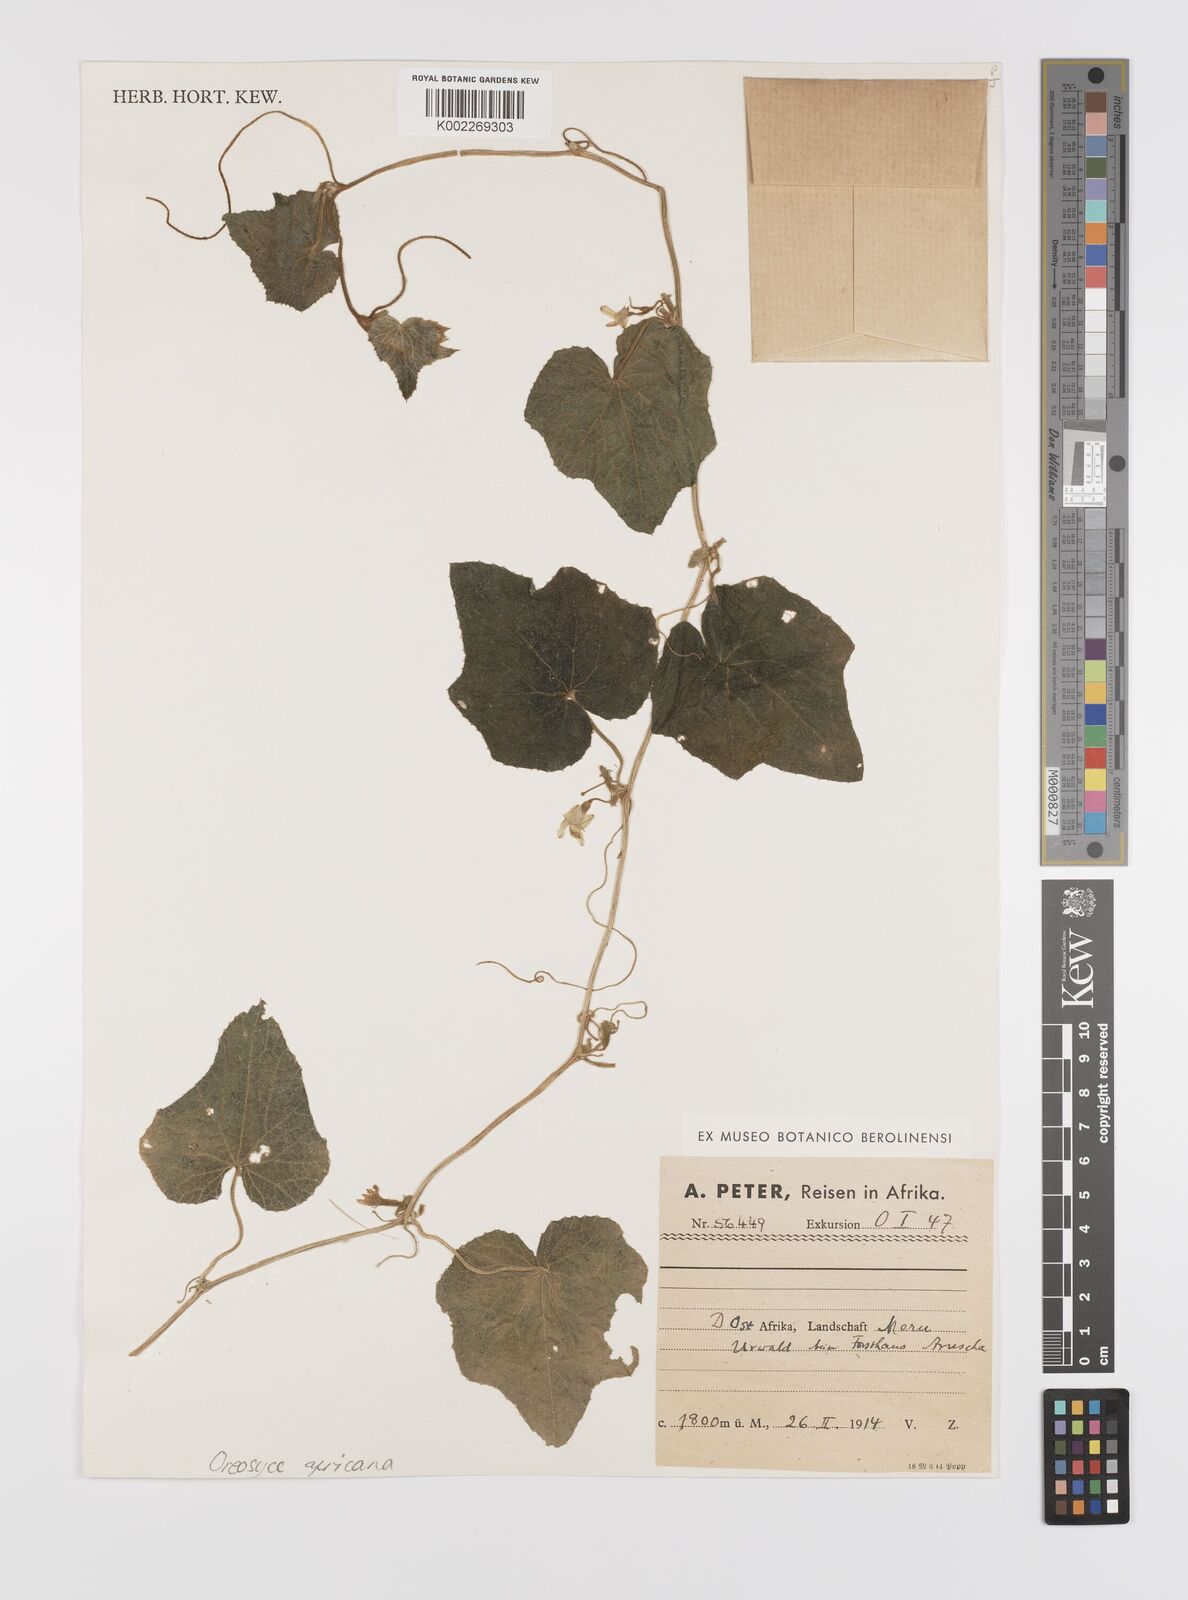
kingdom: Plantae
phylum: Tracheophyta
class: Magnoliopsida
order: Cucurbitales
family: Cucurbitaceae
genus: Cucumis
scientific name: Cucumis oreosyce
